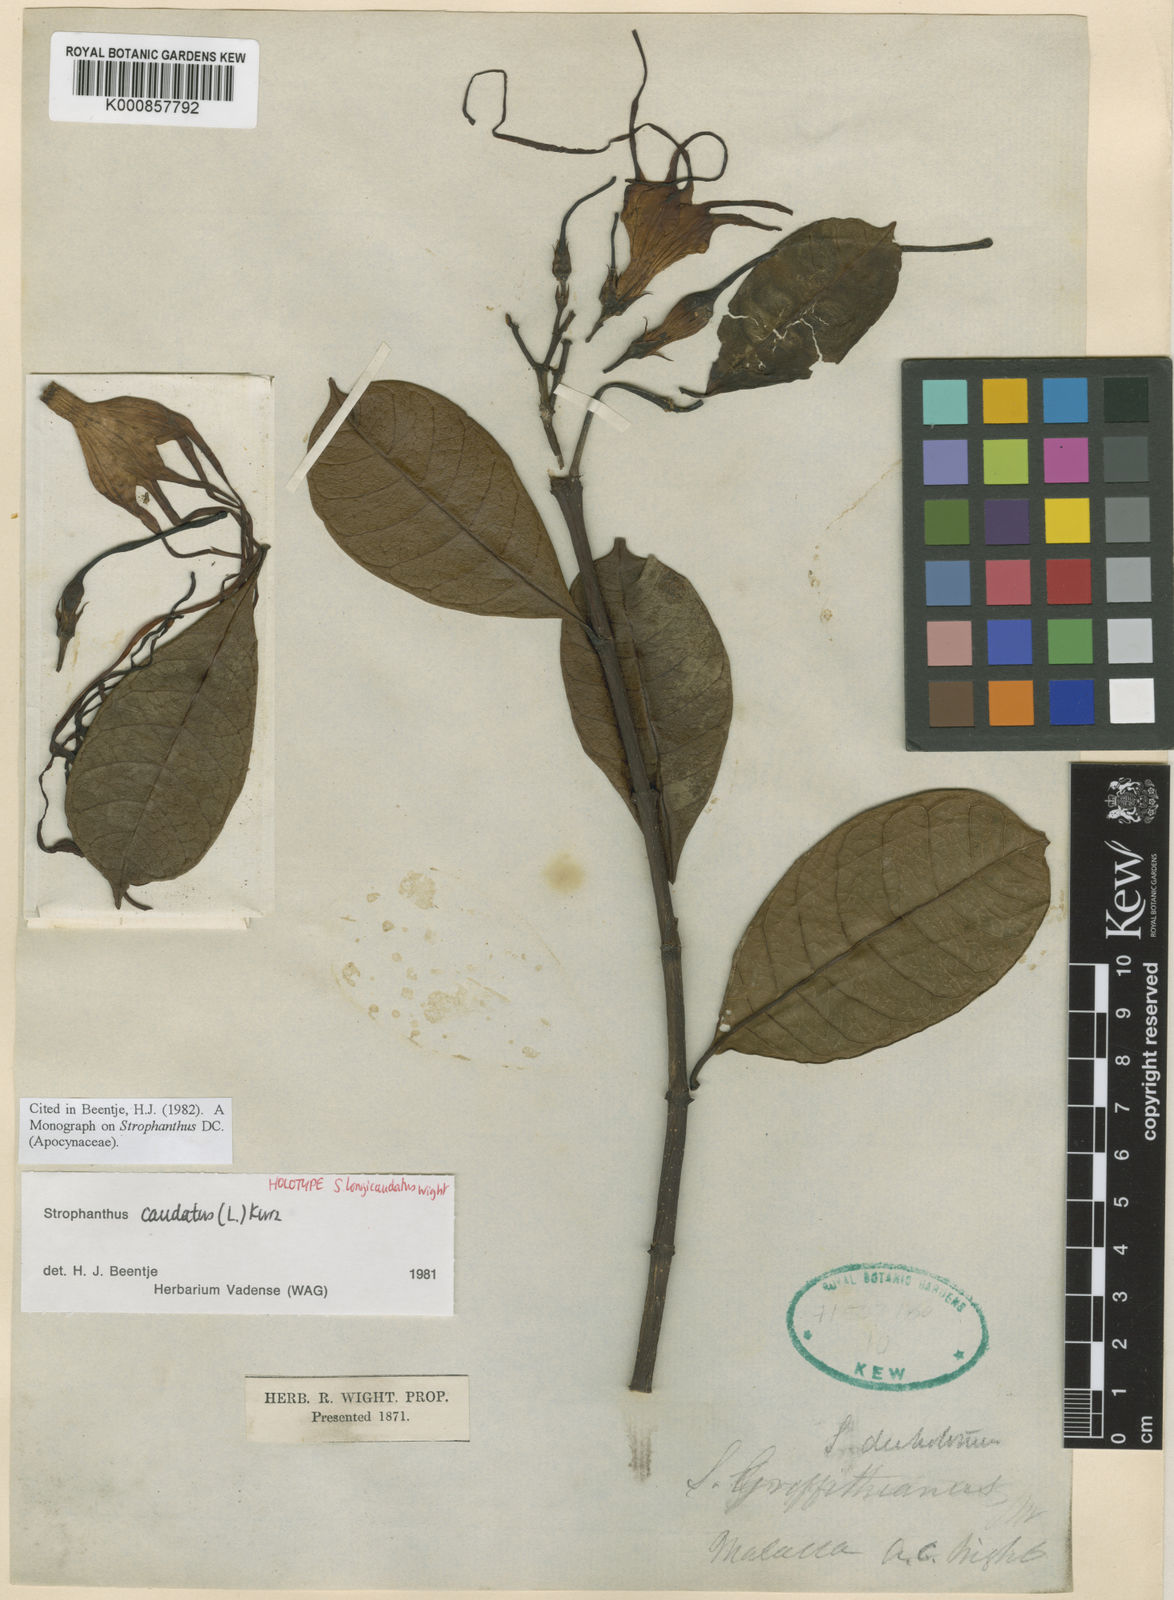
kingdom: Plantae
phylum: Tracheophyta
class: Magnoliopsida
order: Gentianales
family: Apocynaceae
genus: Strophanthus
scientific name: Strophanthus caudatus
